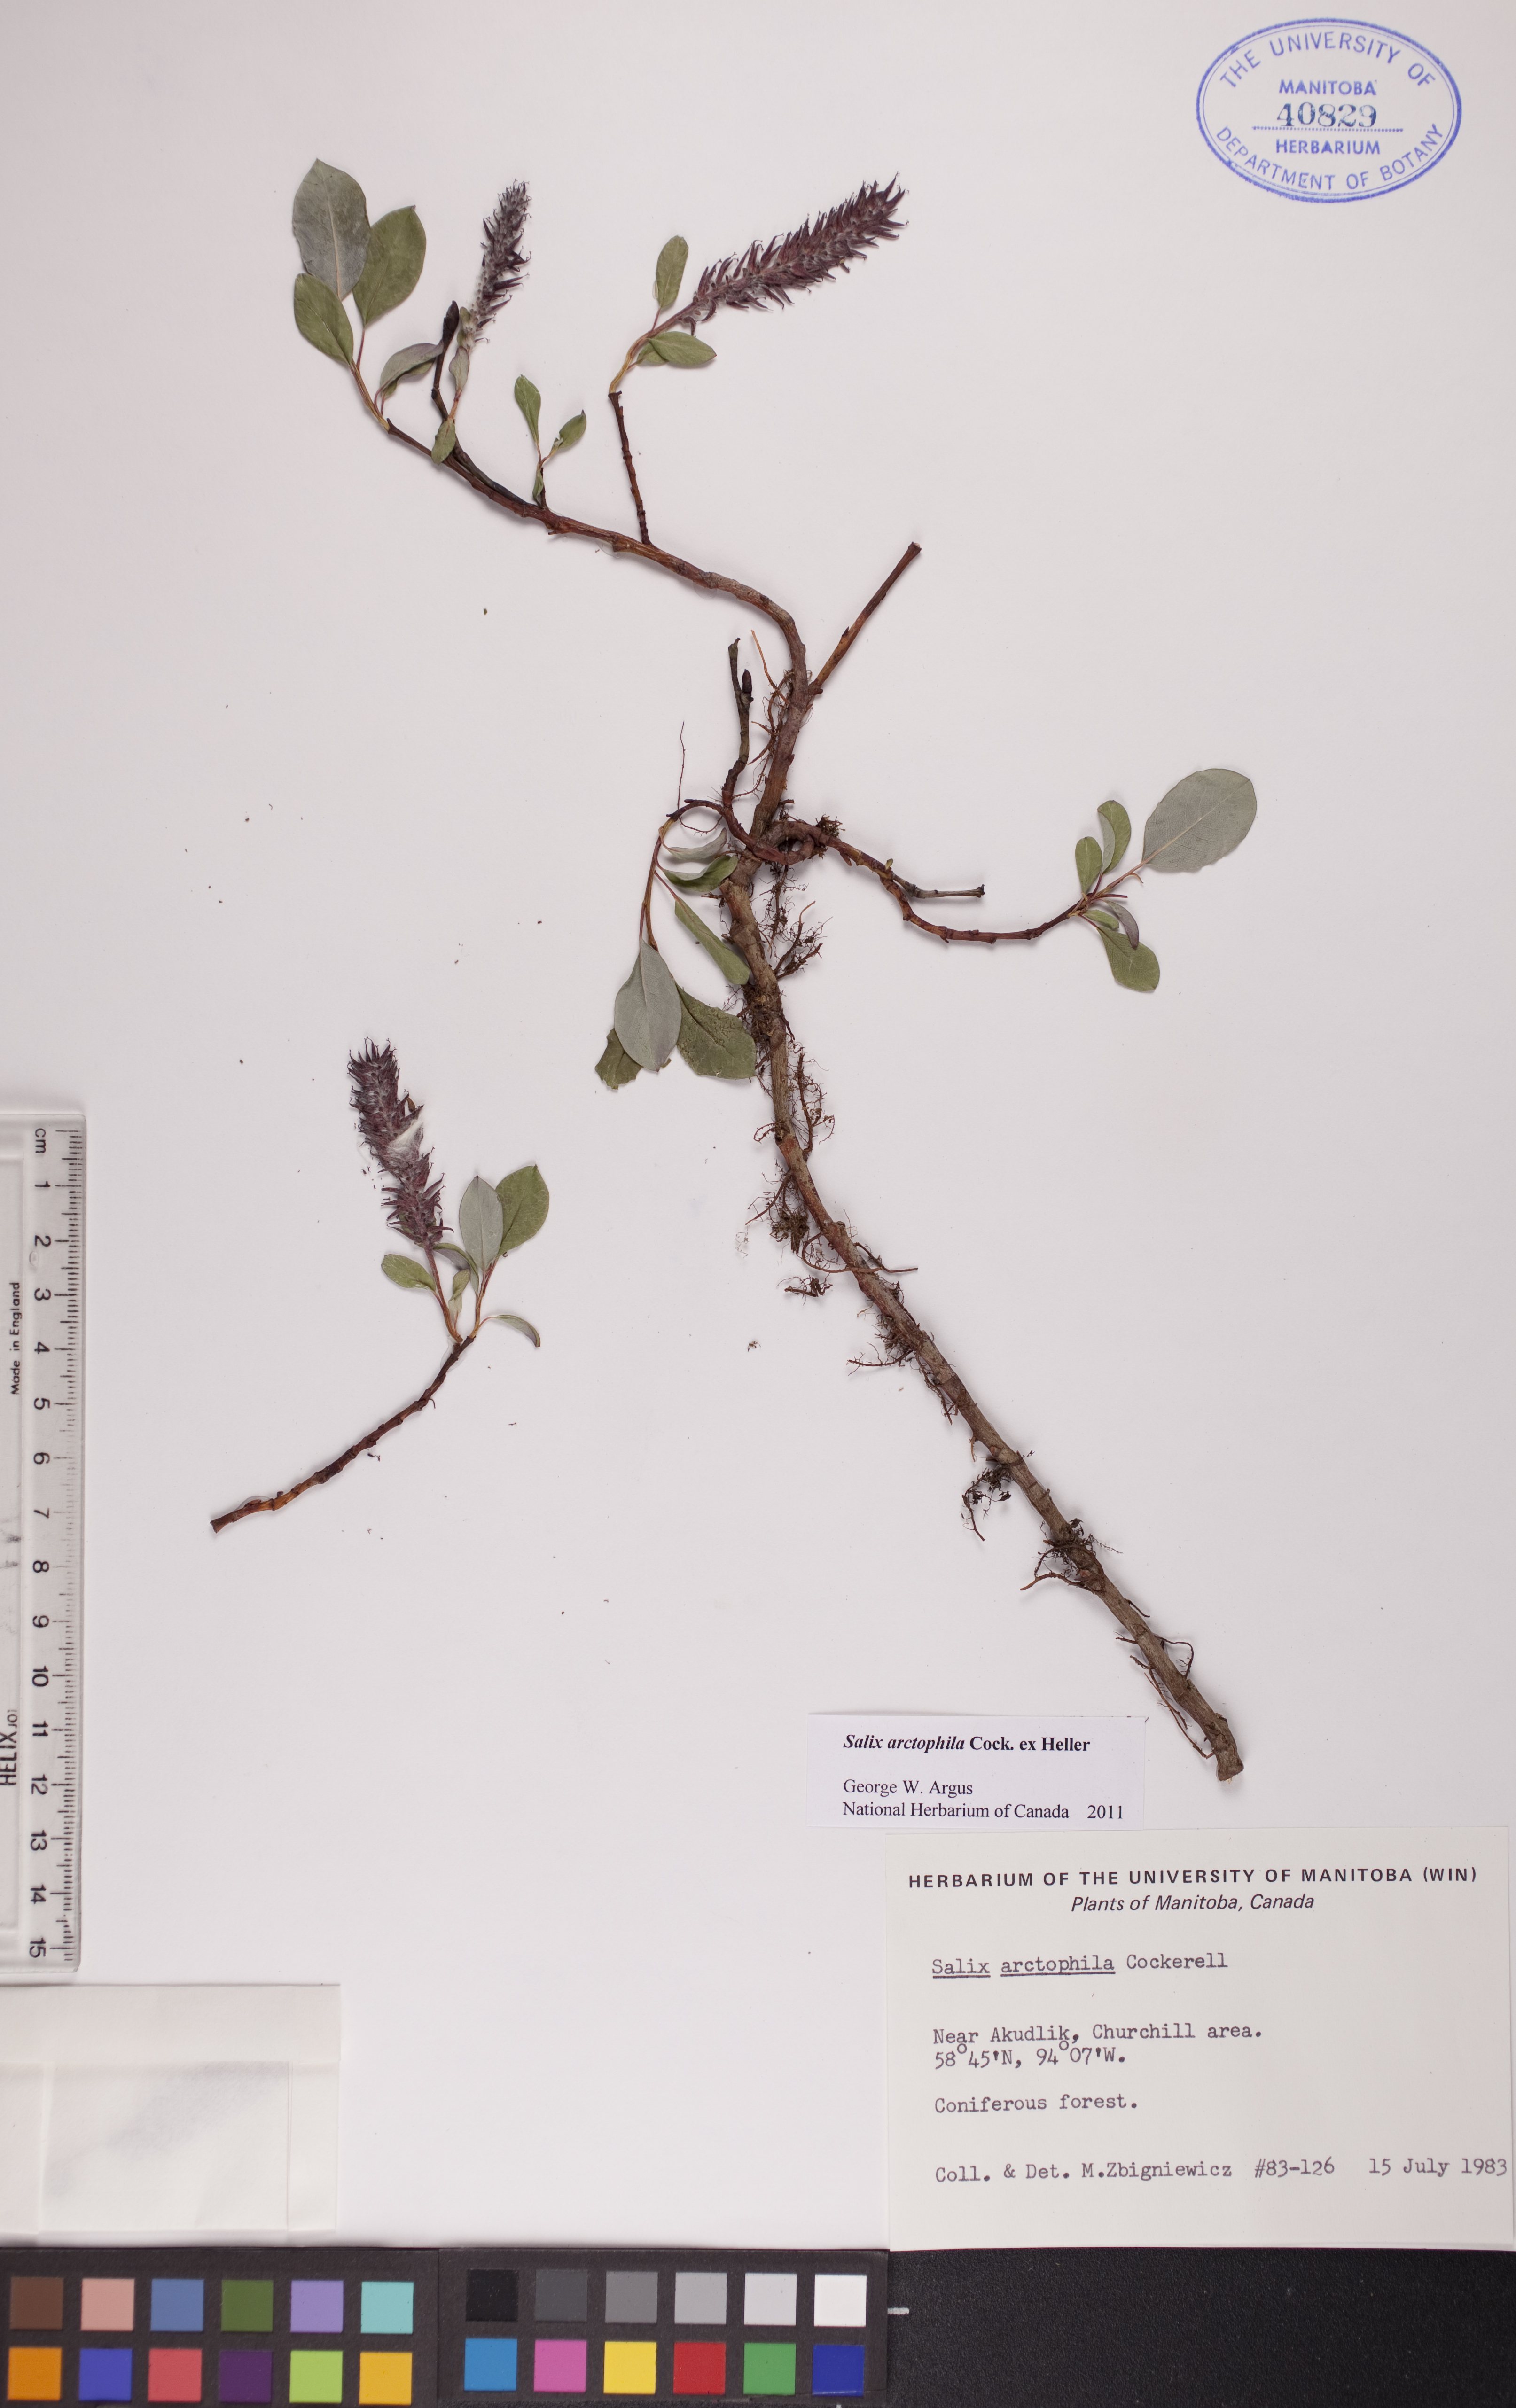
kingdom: Plantae
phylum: Tracheophyta
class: Magnoliopsida
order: Malpighiales
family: Salicaceae
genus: Salix
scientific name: Salix arctophila
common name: Greenland willow
